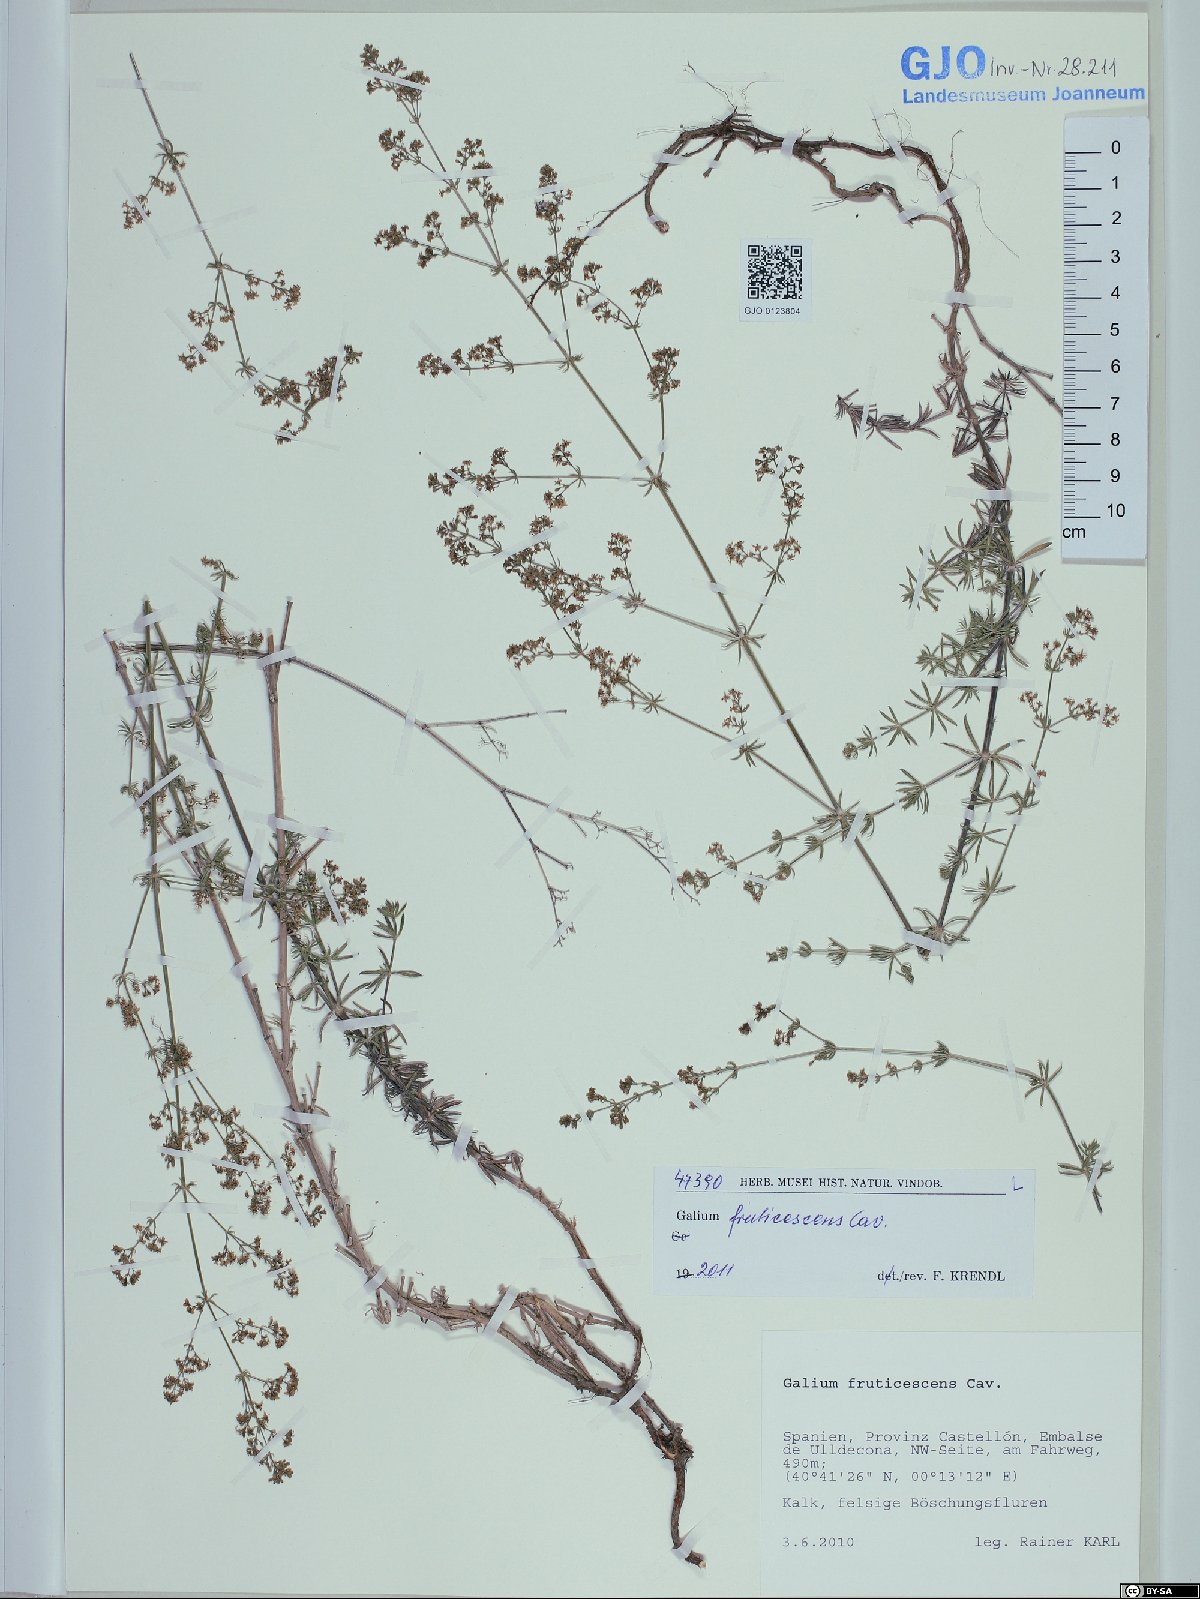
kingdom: Plantae
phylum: Tracheophyta
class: Magnoliopsida
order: Gentianales
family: Rubiaceae
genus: Galium
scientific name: Galium lucidum
